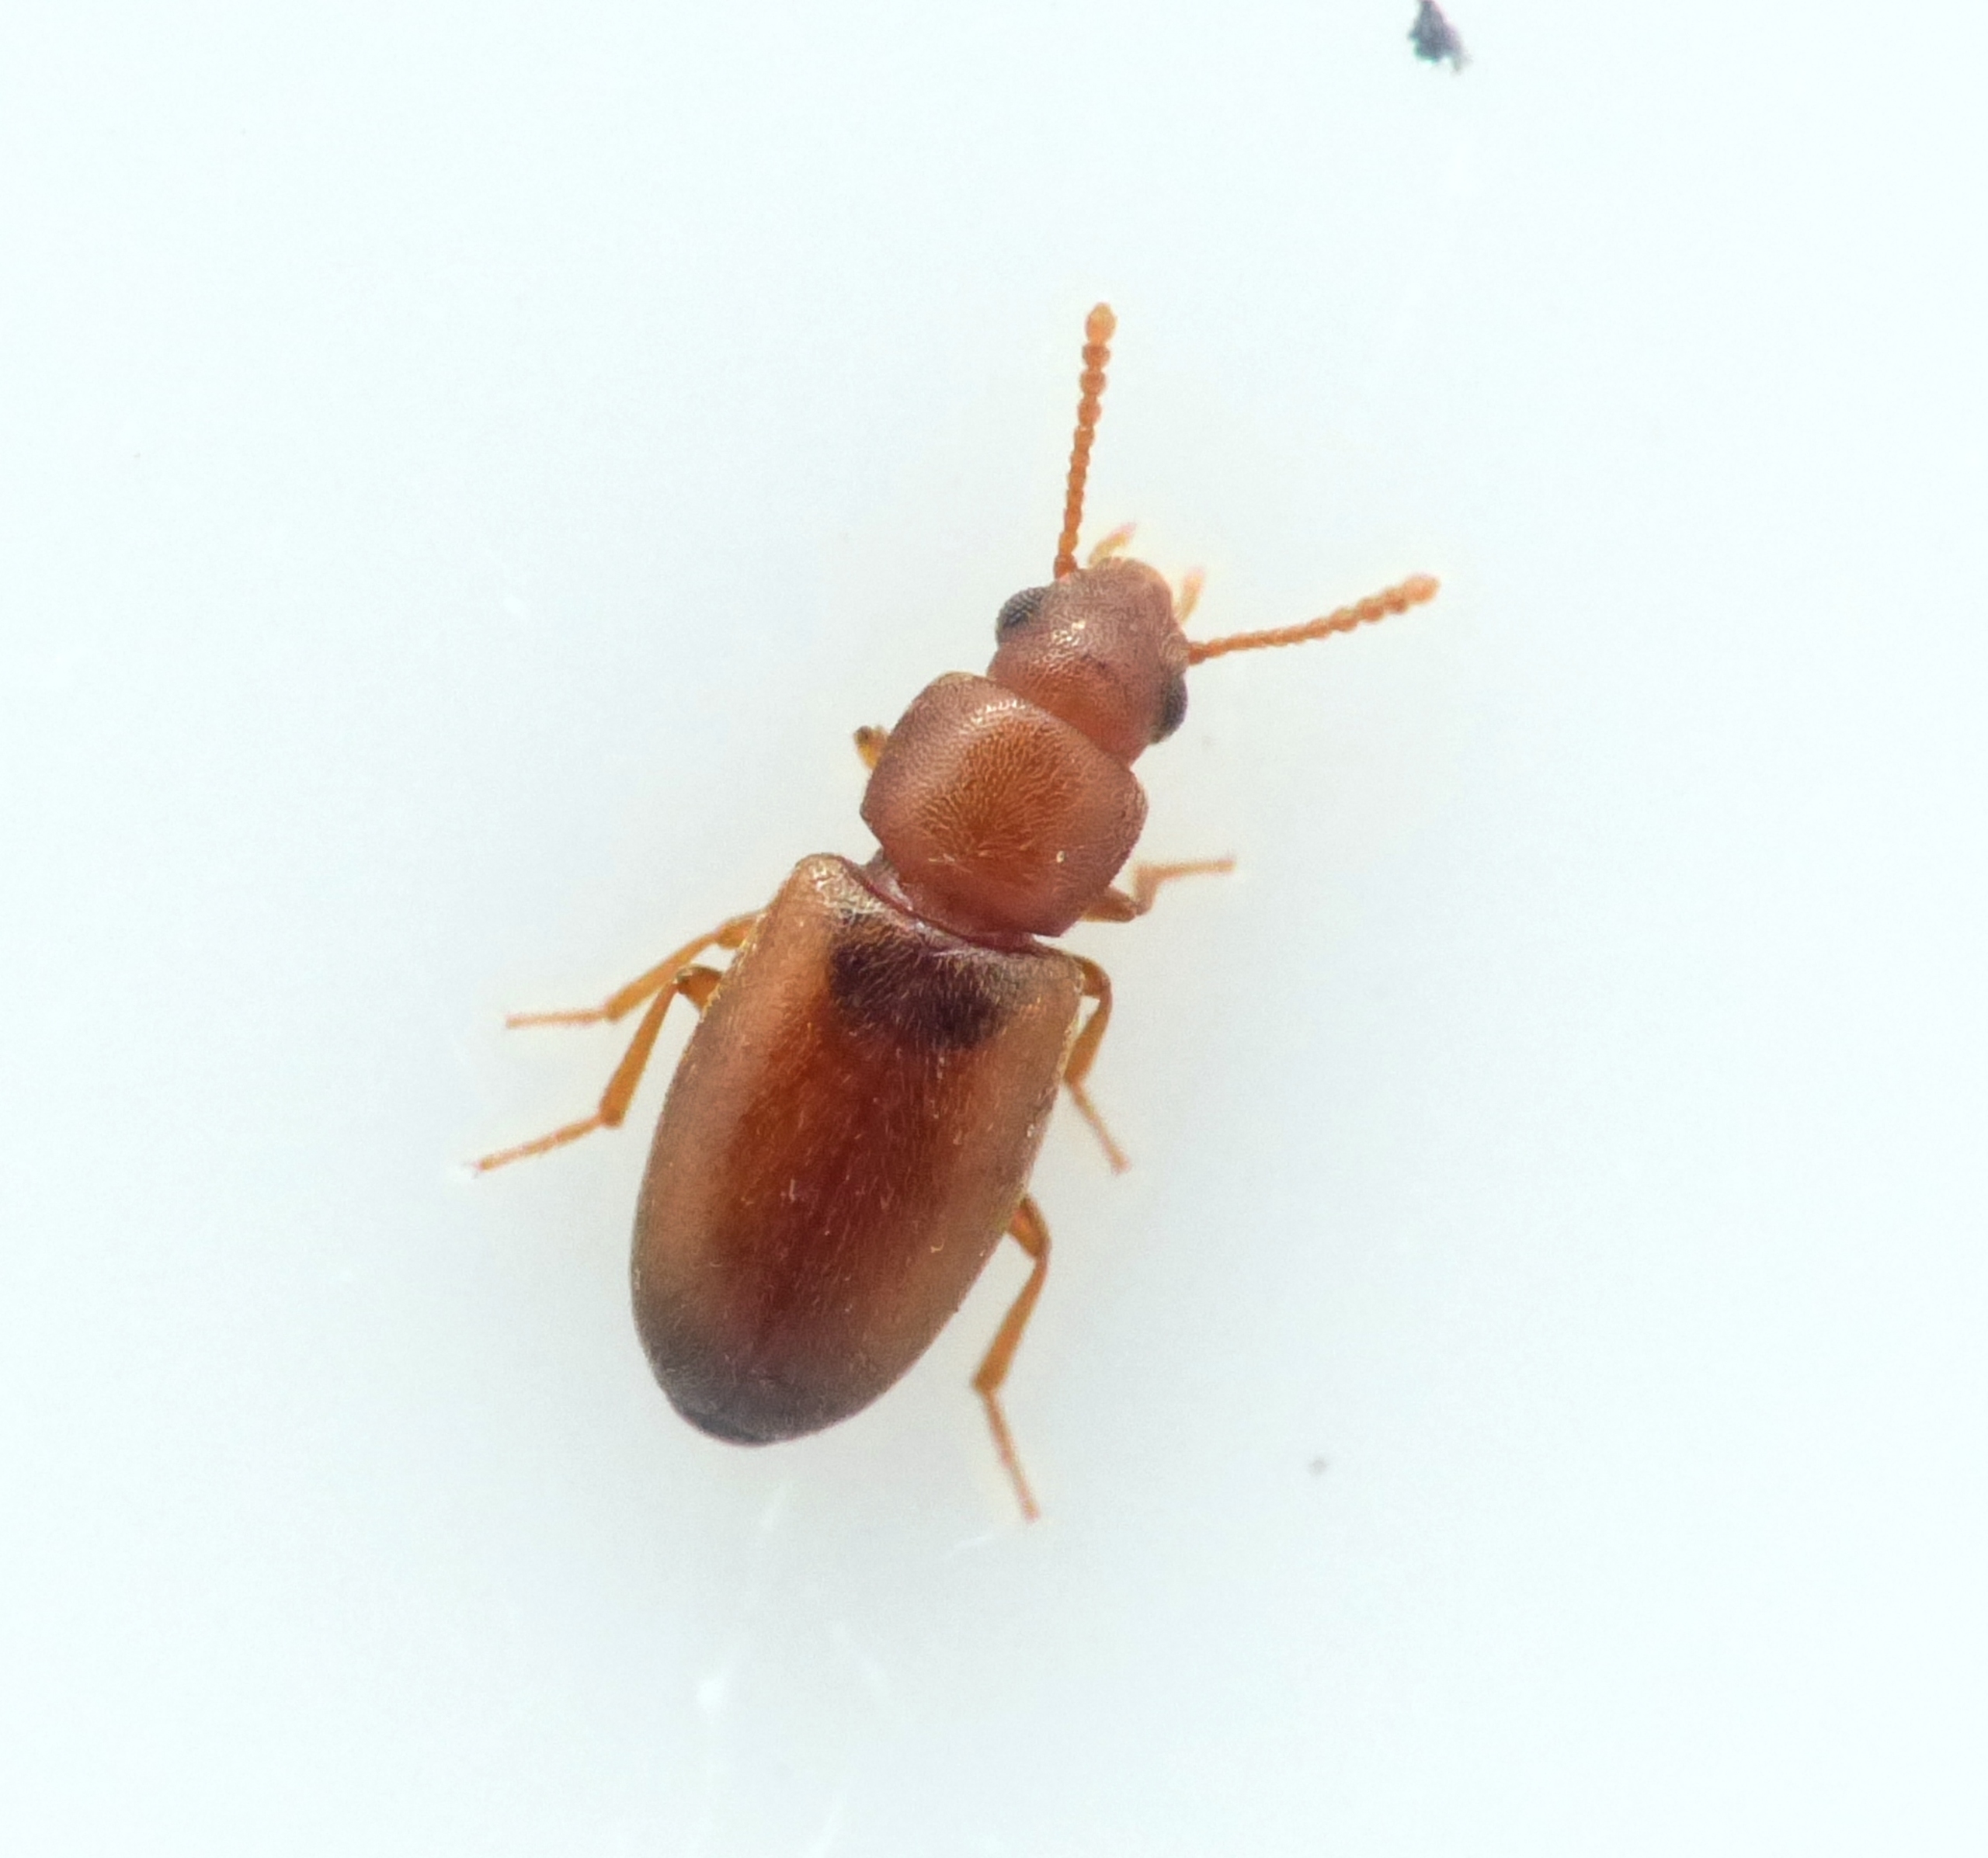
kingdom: Animalia
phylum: Arthropoda
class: Insecta
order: Coleoptera
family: Tenebrionidae
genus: Myrmechixenus
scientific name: Myrmechixenus vaporariorum
